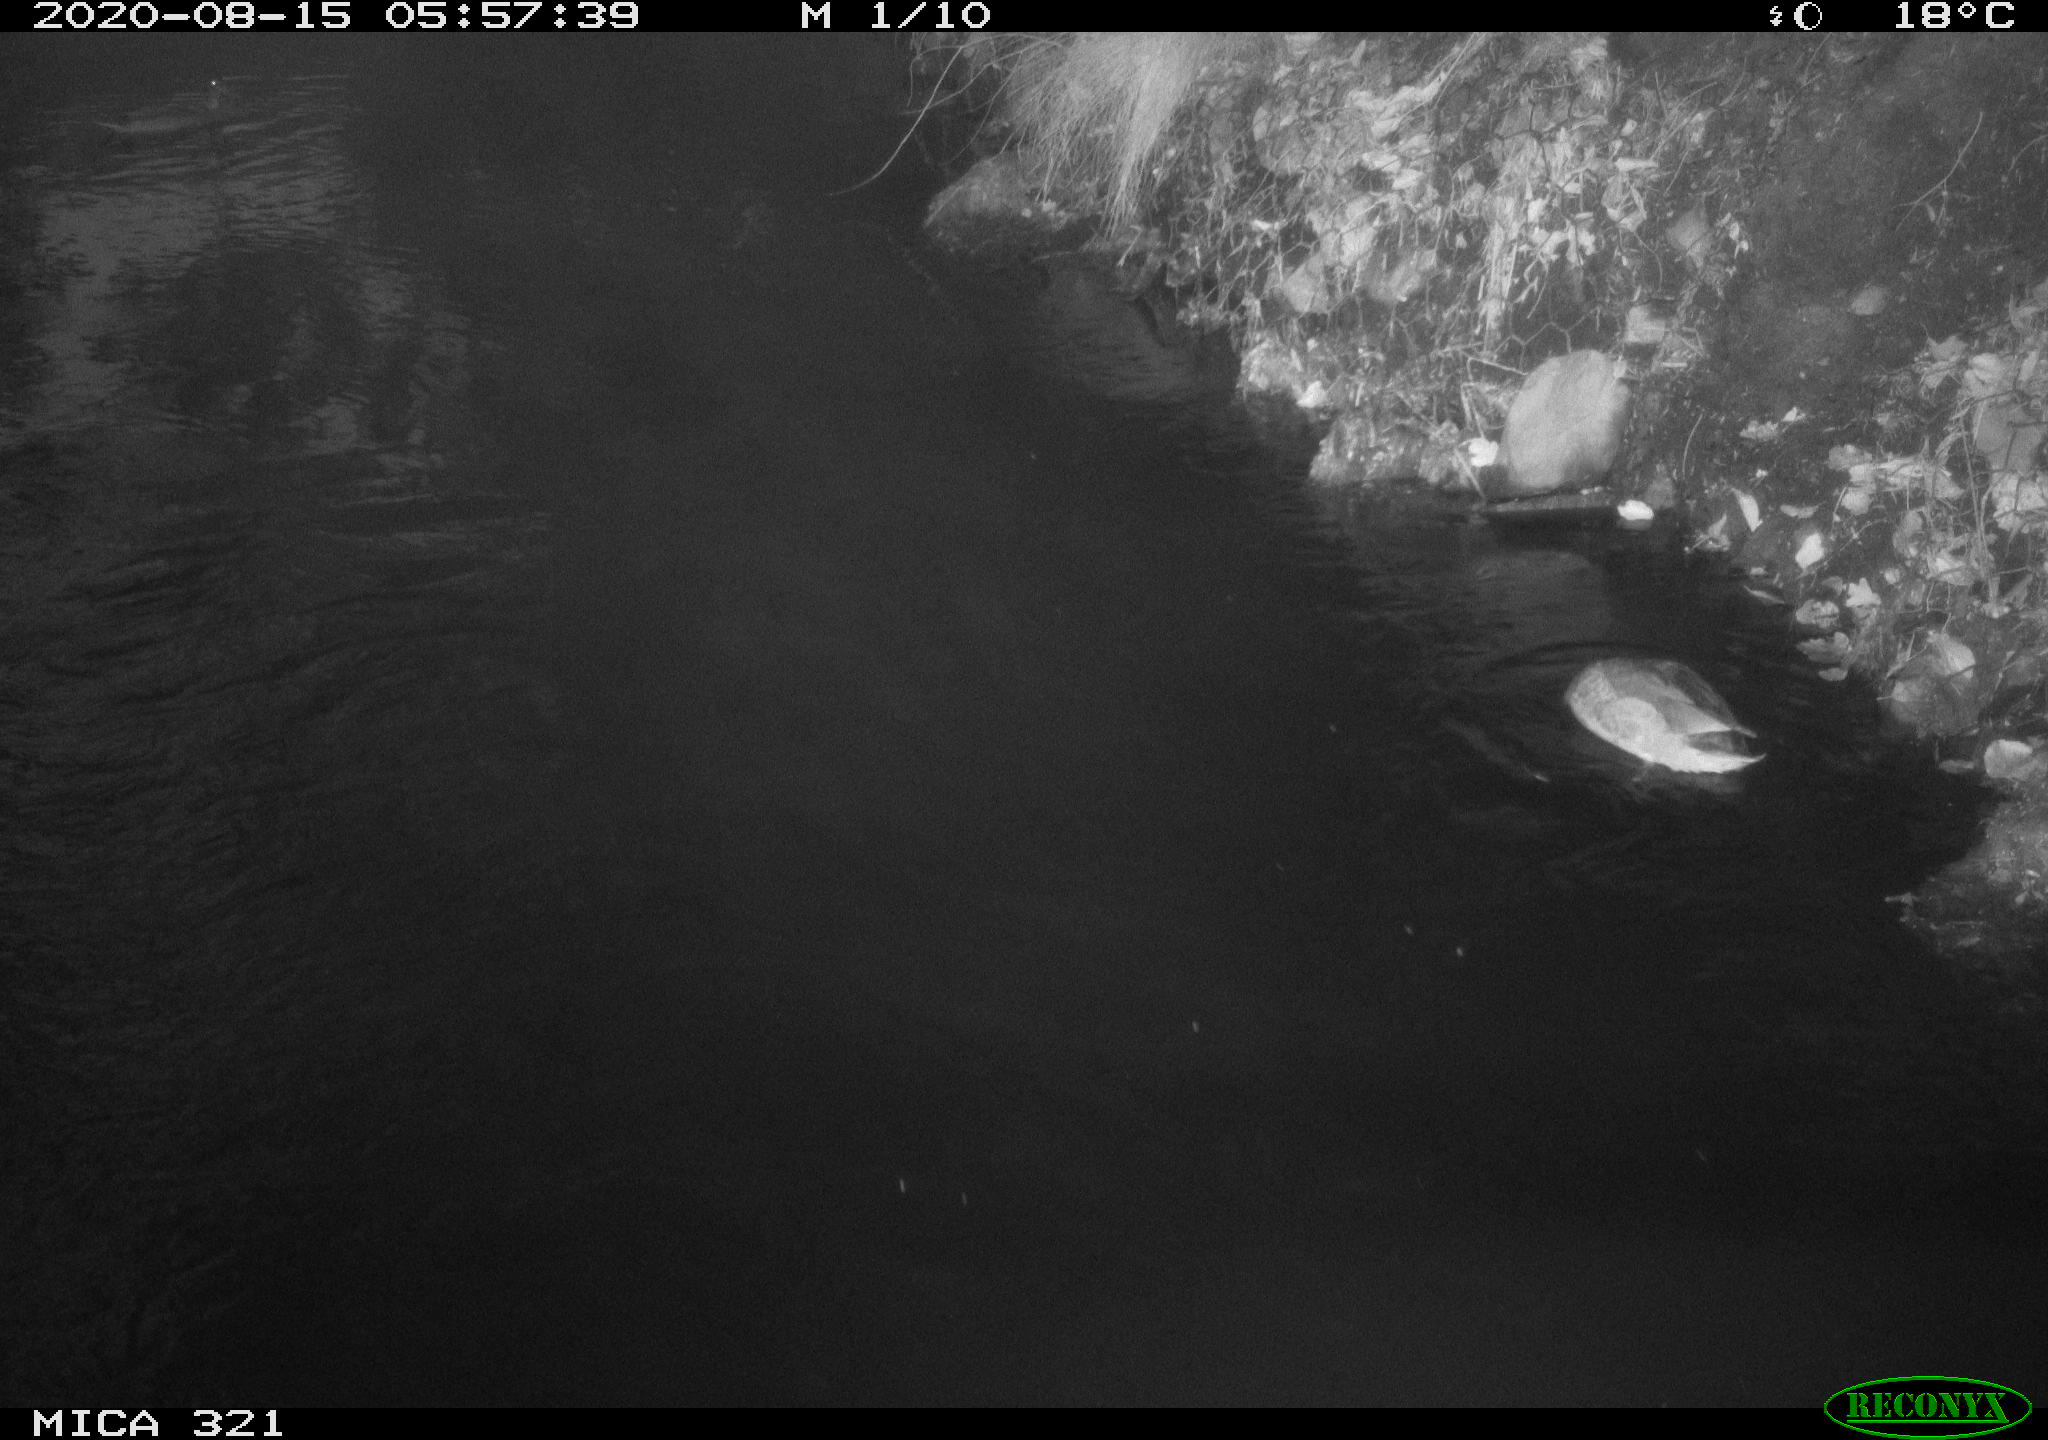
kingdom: Animalia
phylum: Chordata
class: Aves
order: Anseriformes
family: Anatidae
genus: Anas
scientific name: Anas platyrhynchos
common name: Mallard
